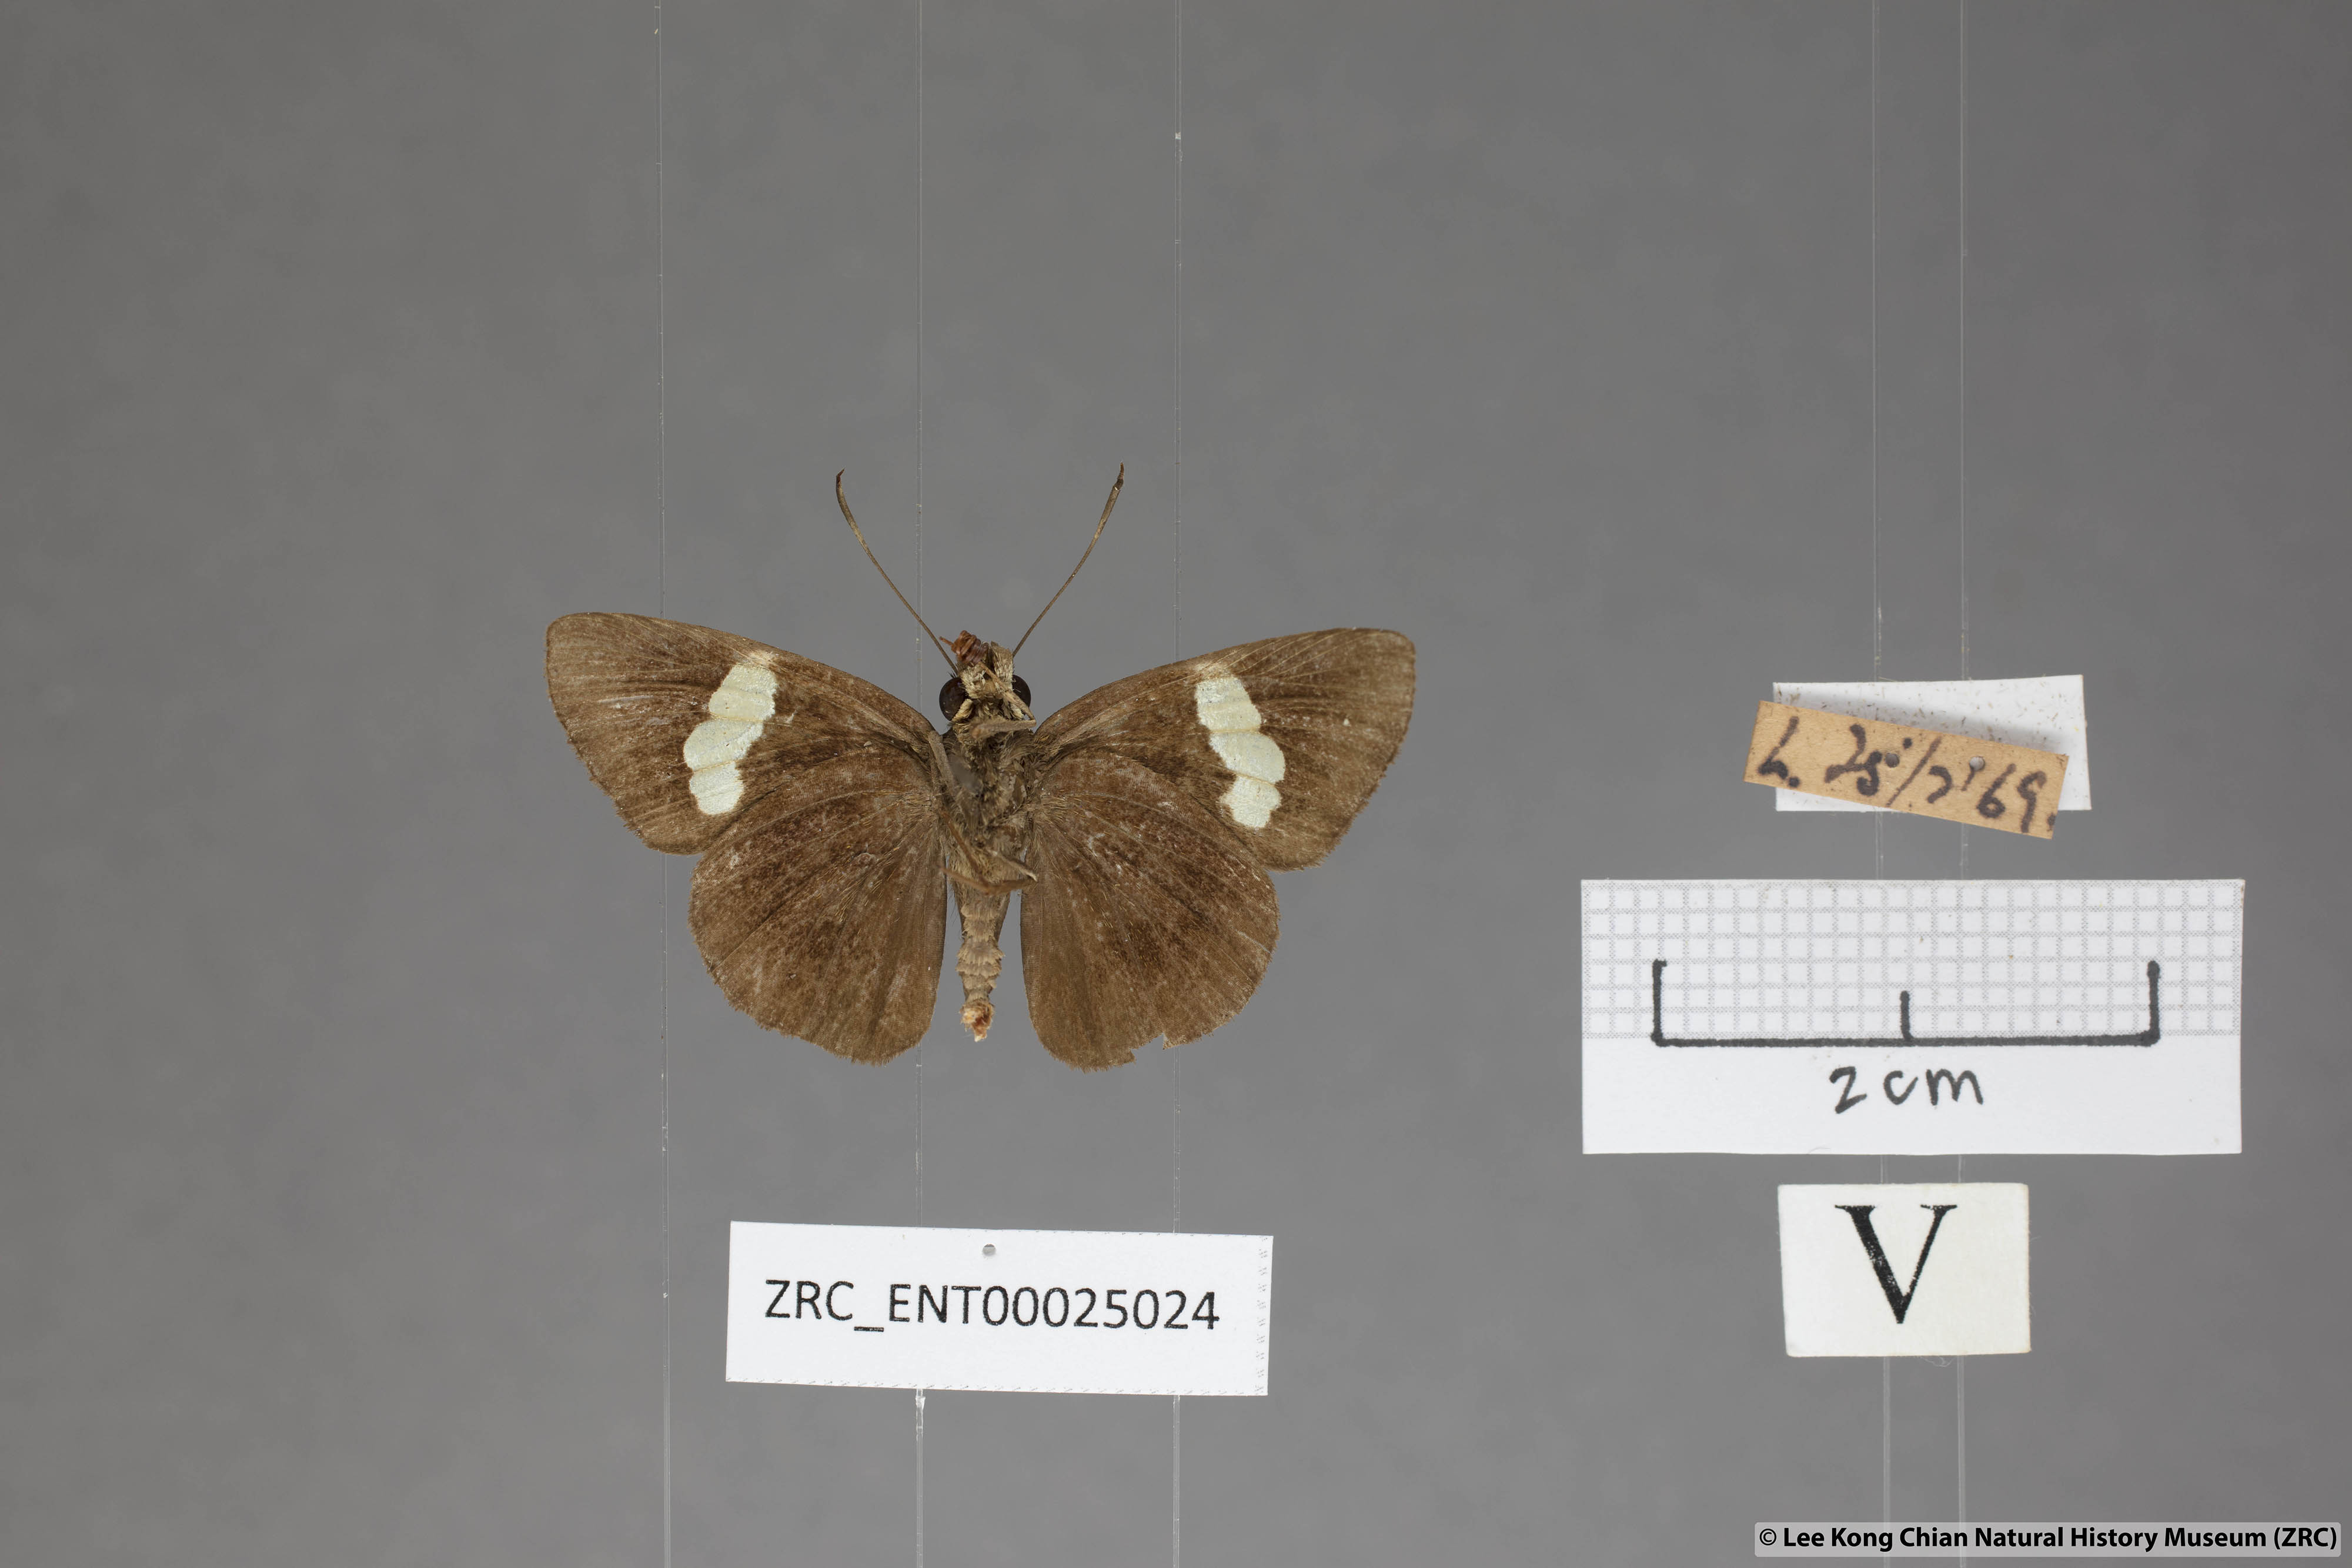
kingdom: Animalia
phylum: Arthropoda
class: Insecta
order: Lepidoptera
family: Hesperiidae
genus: Notocrypta
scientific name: Notocrypta paralysos
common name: Common banded demon
